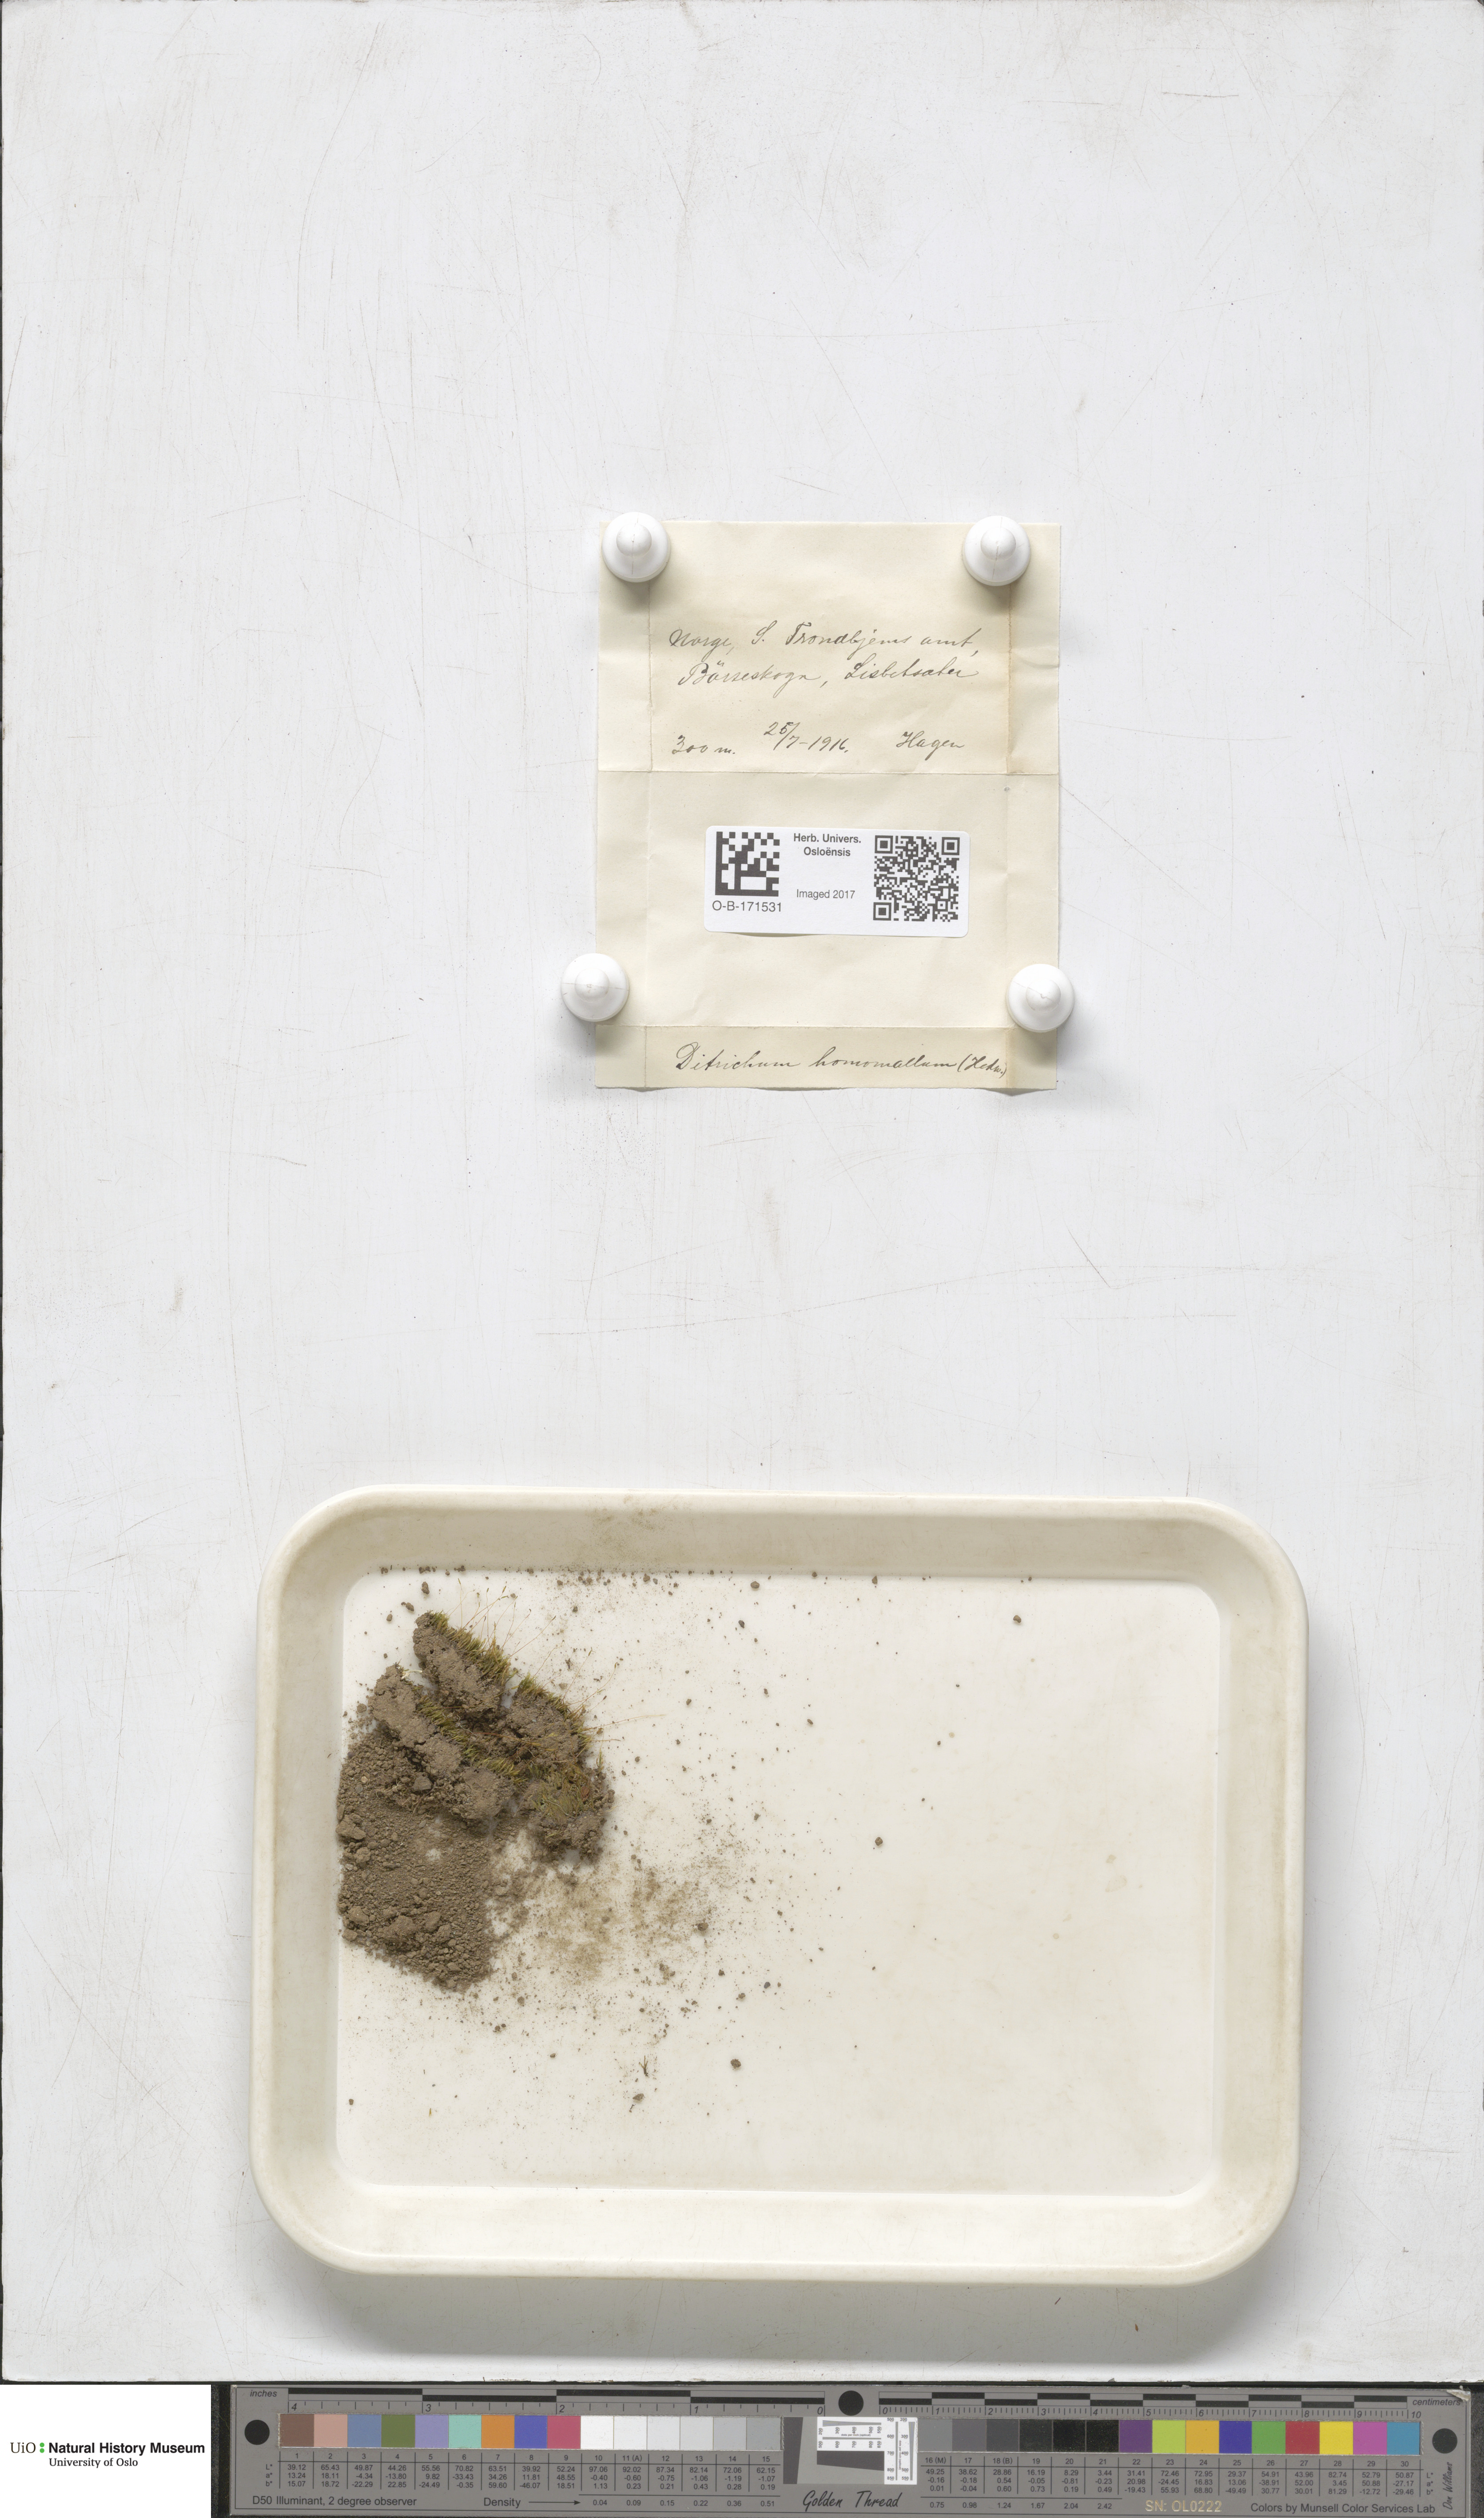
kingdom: Plantae
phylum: Bryophyta
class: Bryopsida
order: Dicranales
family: Ditrichaceae
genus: Ditrichum
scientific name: Ditrichum heteromallum
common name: Curve-leaved ditrichum
